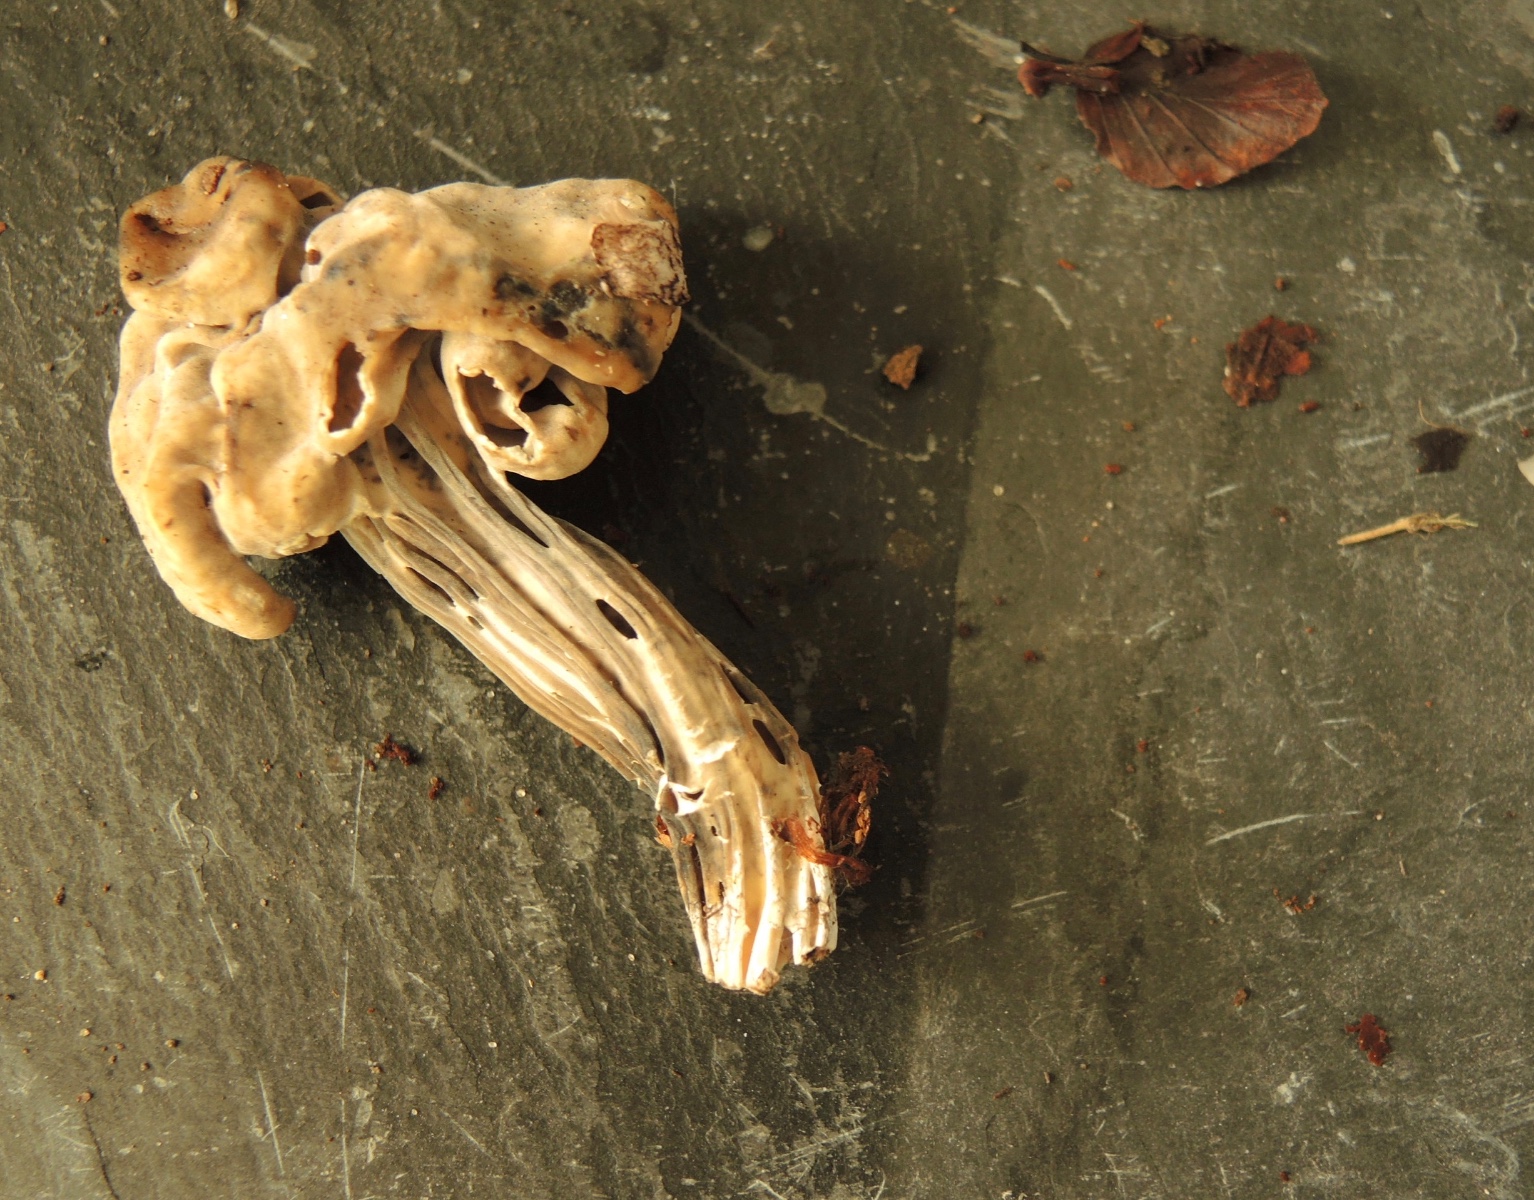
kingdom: Fungi
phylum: Ascomycota
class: Pezizomycetes
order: Pezizales
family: Helvellaceae
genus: Helvella
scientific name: Helvella lacunosa
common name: grubet foldhat
